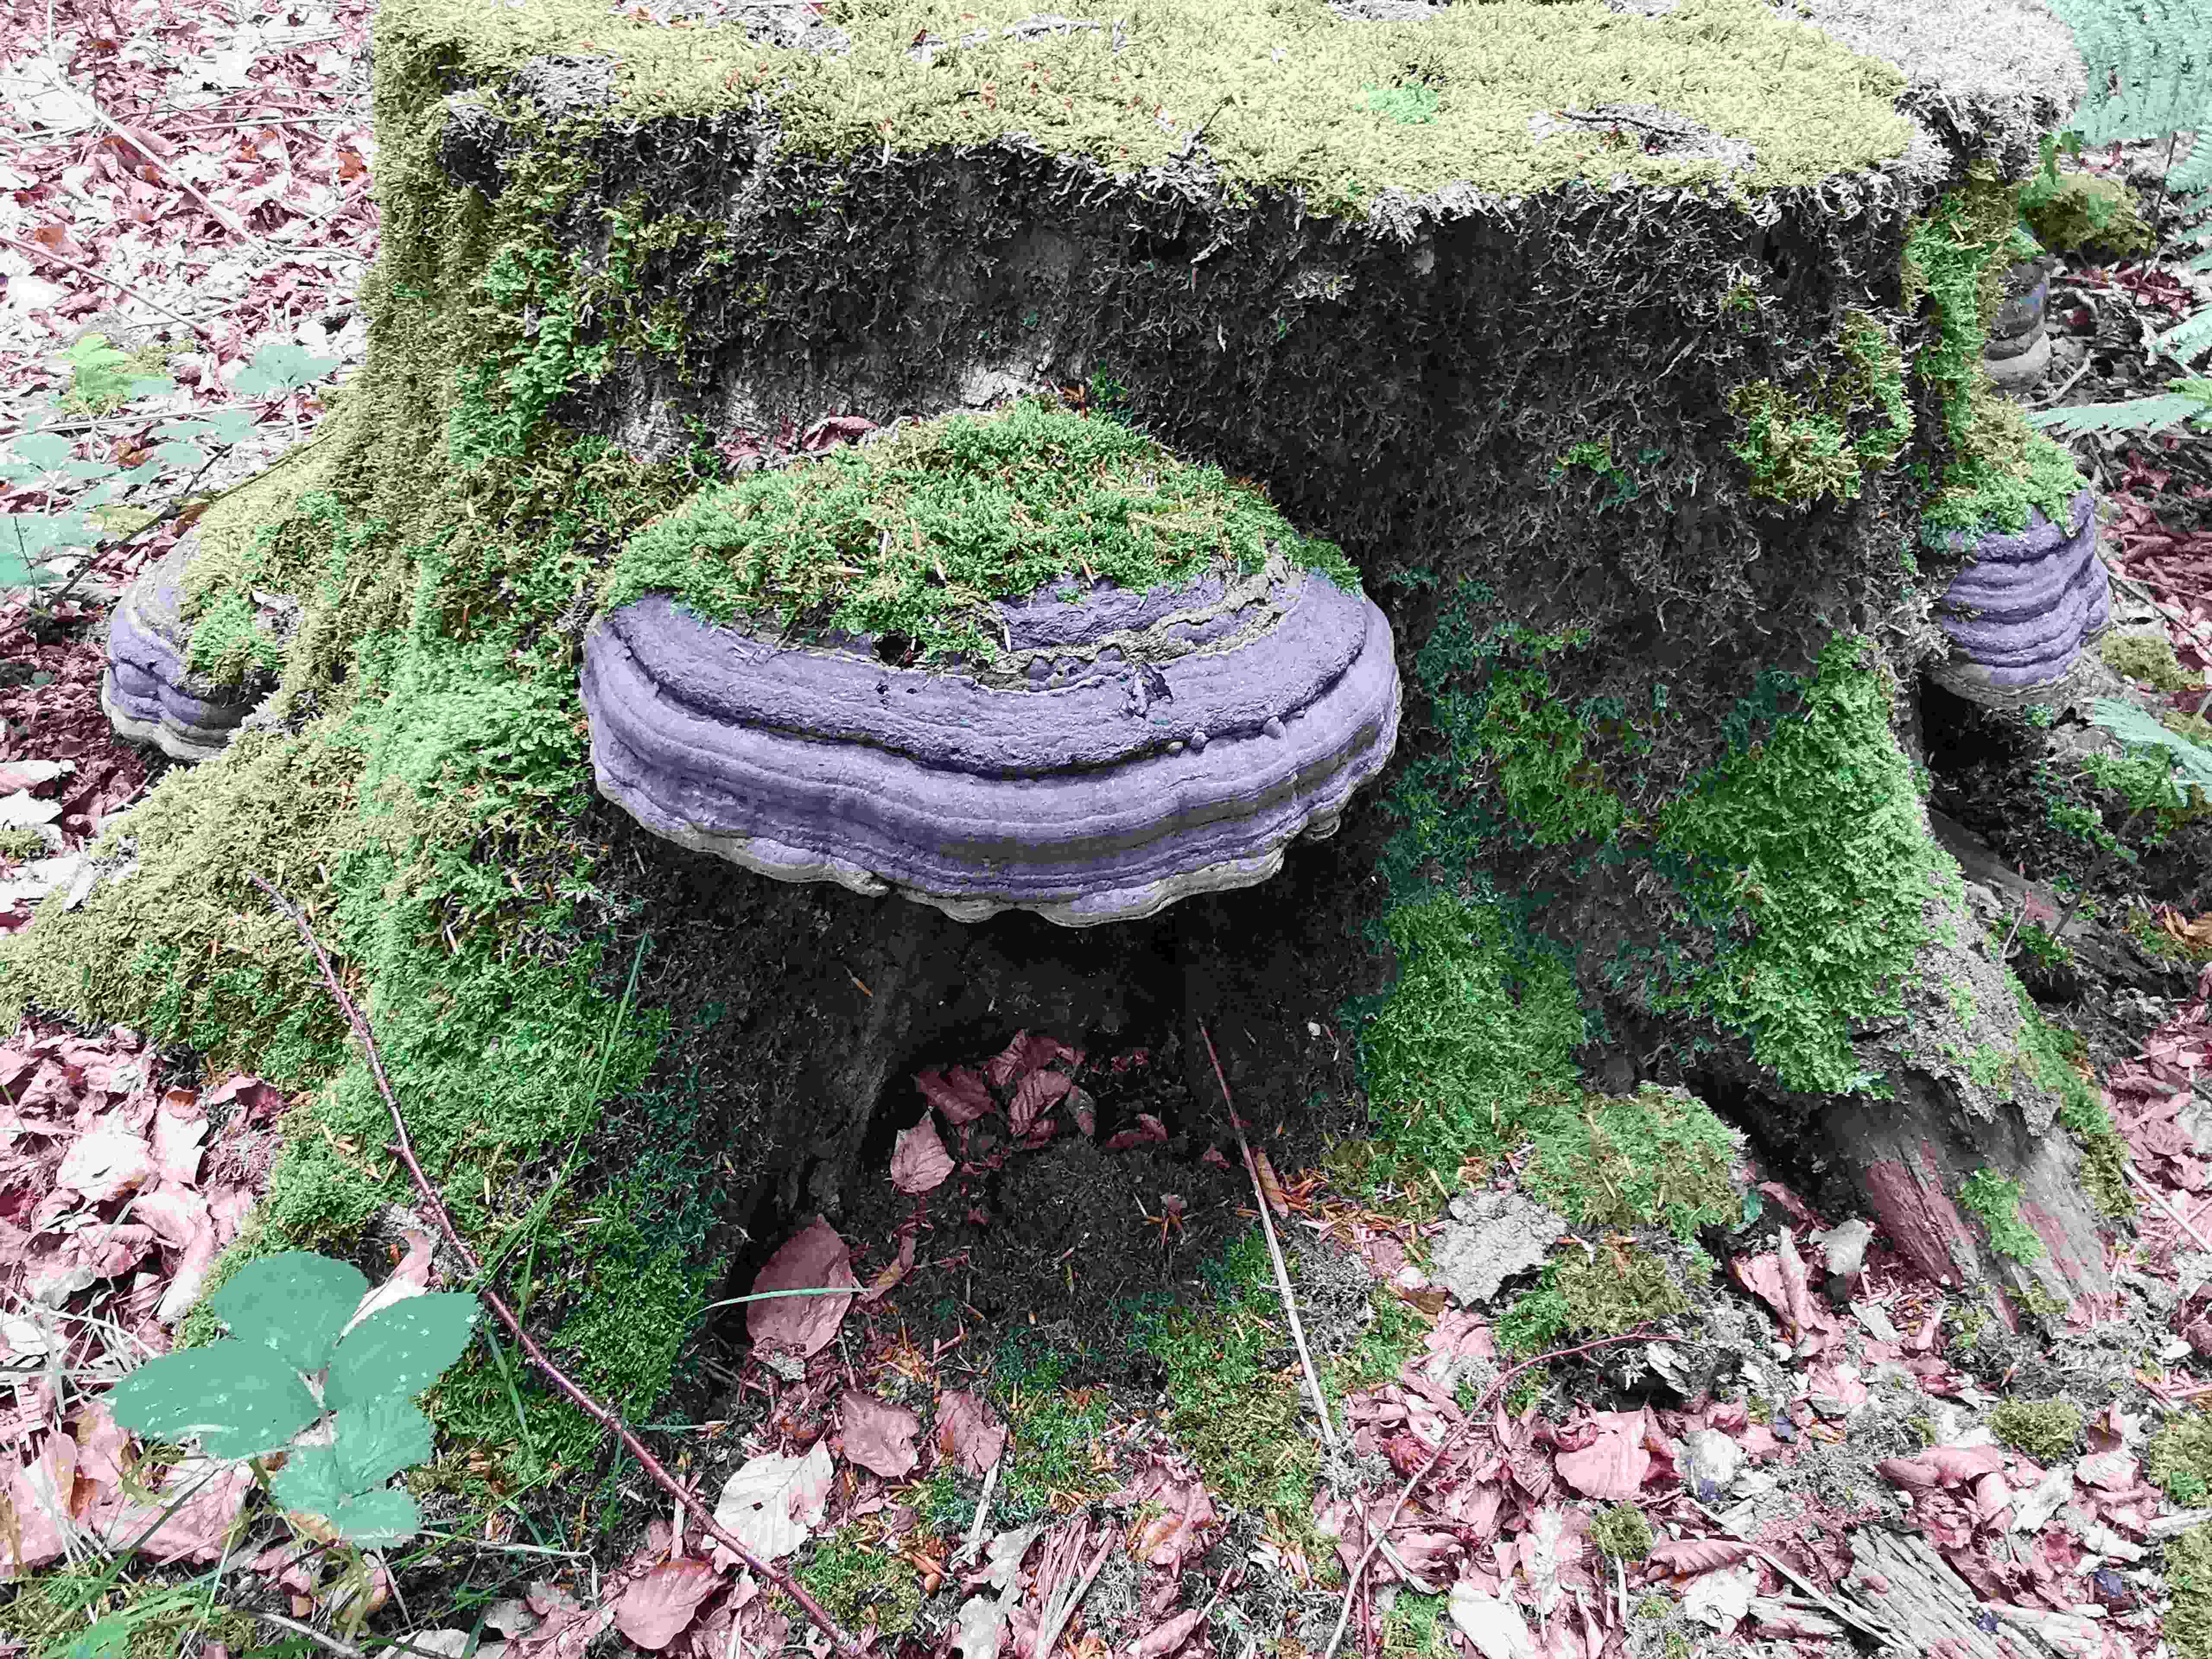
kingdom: Fungi
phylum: Basidiomycota
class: Agaricomycetes
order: Polyporales
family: Polyporaceae
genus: Fomes
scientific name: Fomes fomentarius
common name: tøndersvamp
